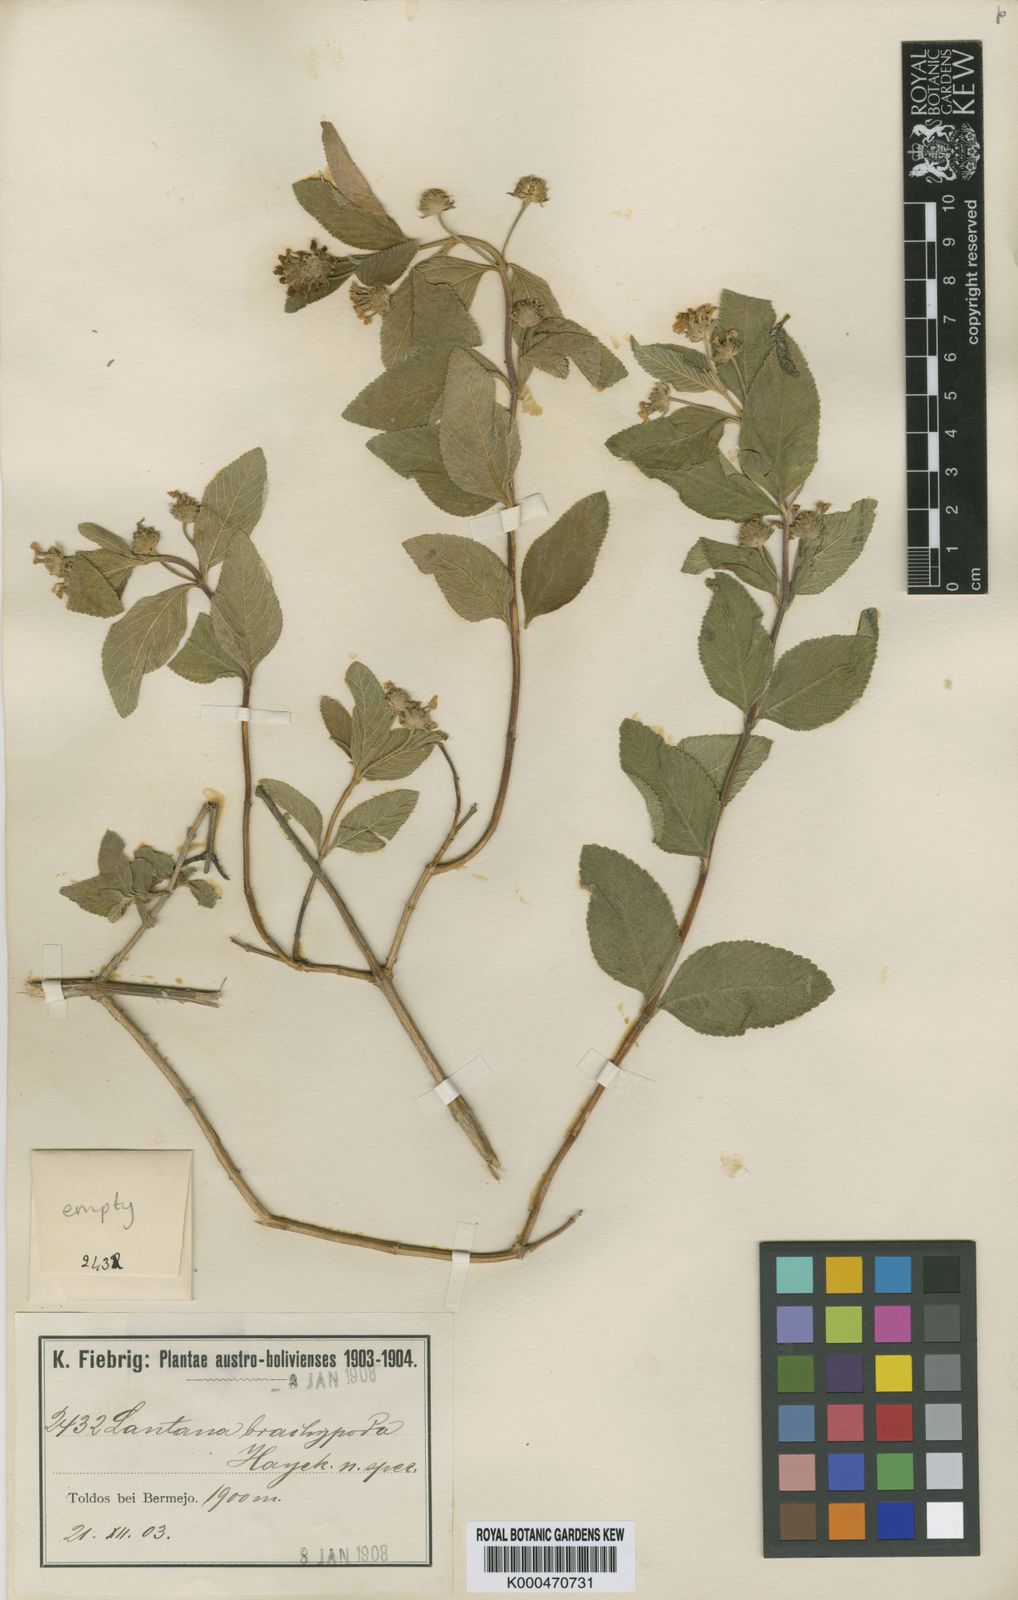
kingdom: Plantae
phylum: Tracheophyta
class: Magnoliopsida
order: Lamiales
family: Verbenaceae
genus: Lippia
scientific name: Lippia brachypoda
